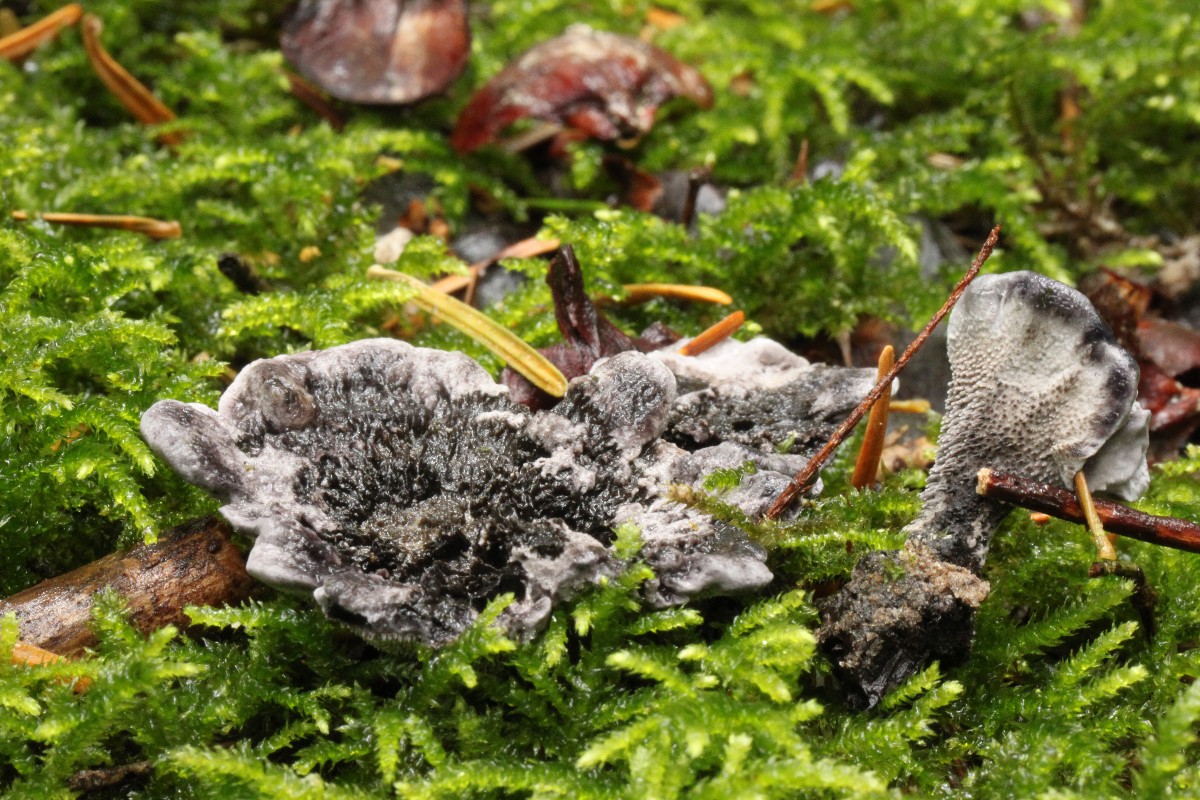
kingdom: Fungi
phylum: Basidiomycota
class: Agaricomycetes
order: Thelephorales
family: Thelephoraceae
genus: Phellodon
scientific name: Phellodon
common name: mørk duftpigsvamp
